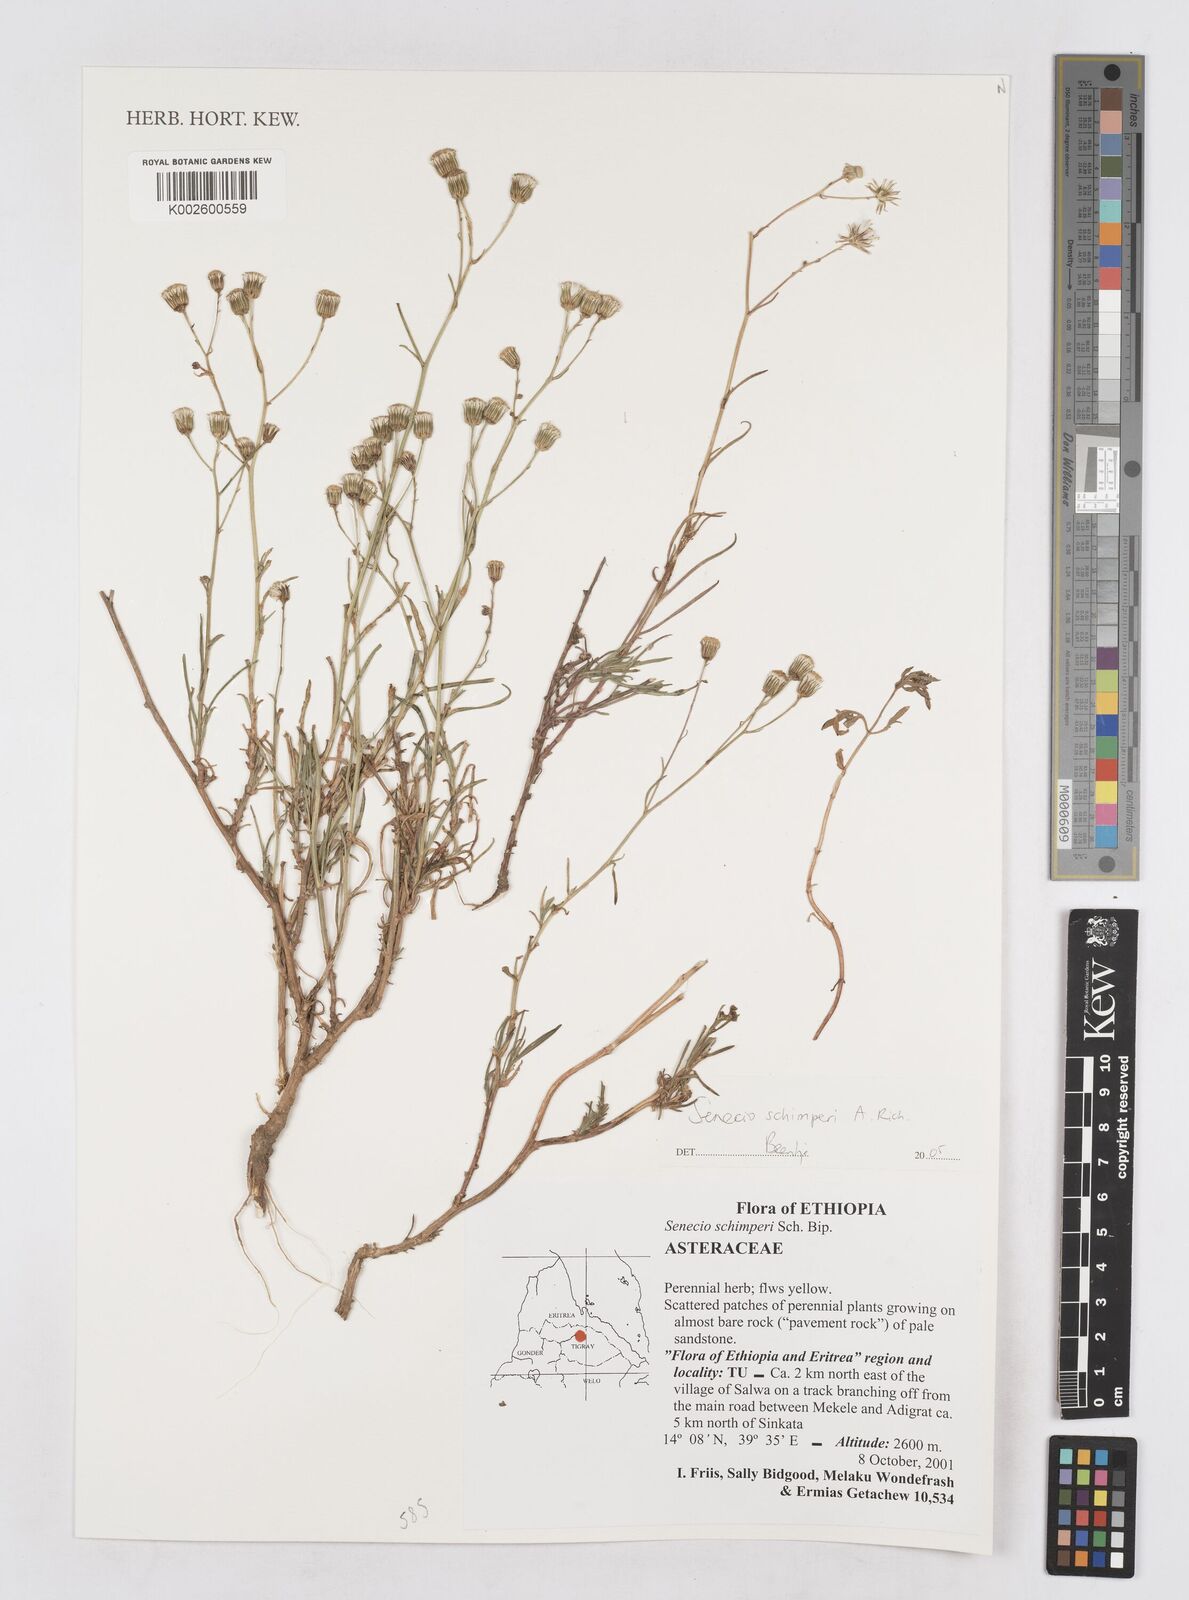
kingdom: Plantae
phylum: Tracheophyta
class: Magnoliopsida
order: Asterales
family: Asteraceae
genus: Senecio
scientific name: Senecio schimperi
